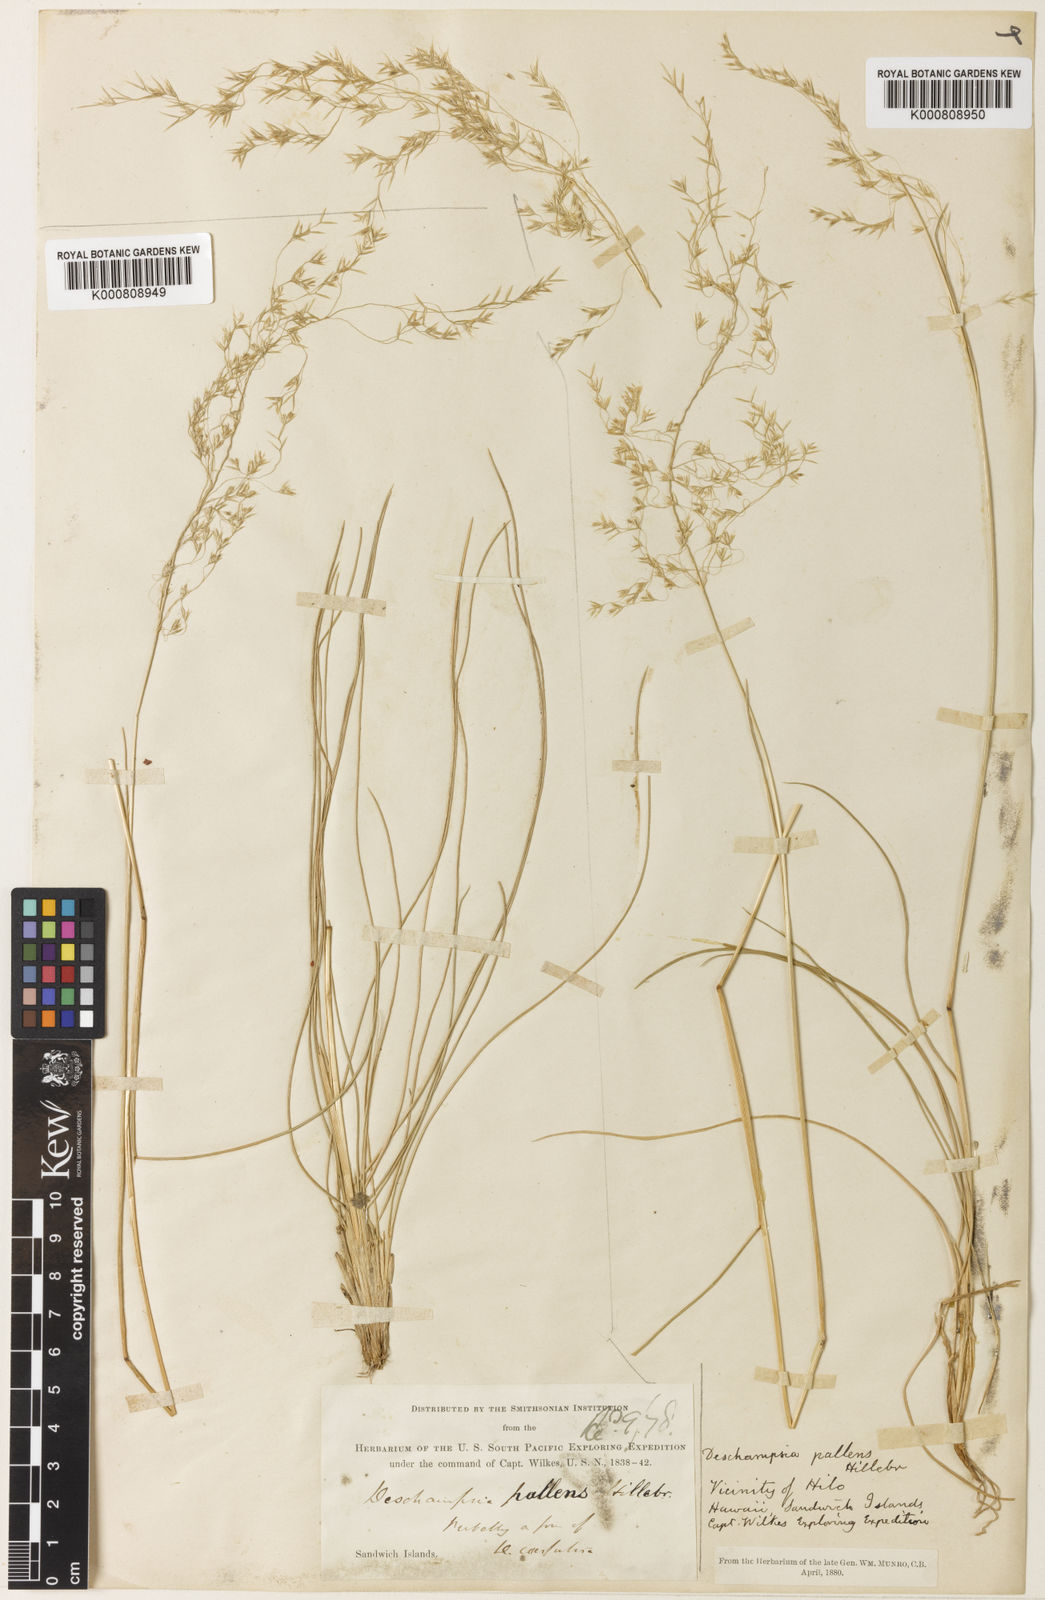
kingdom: Plantae
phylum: Tracheophyta
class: Liliopsida
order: Poales
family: Poaceae
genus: Deschampsia
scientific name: Deschampsia nubigena
